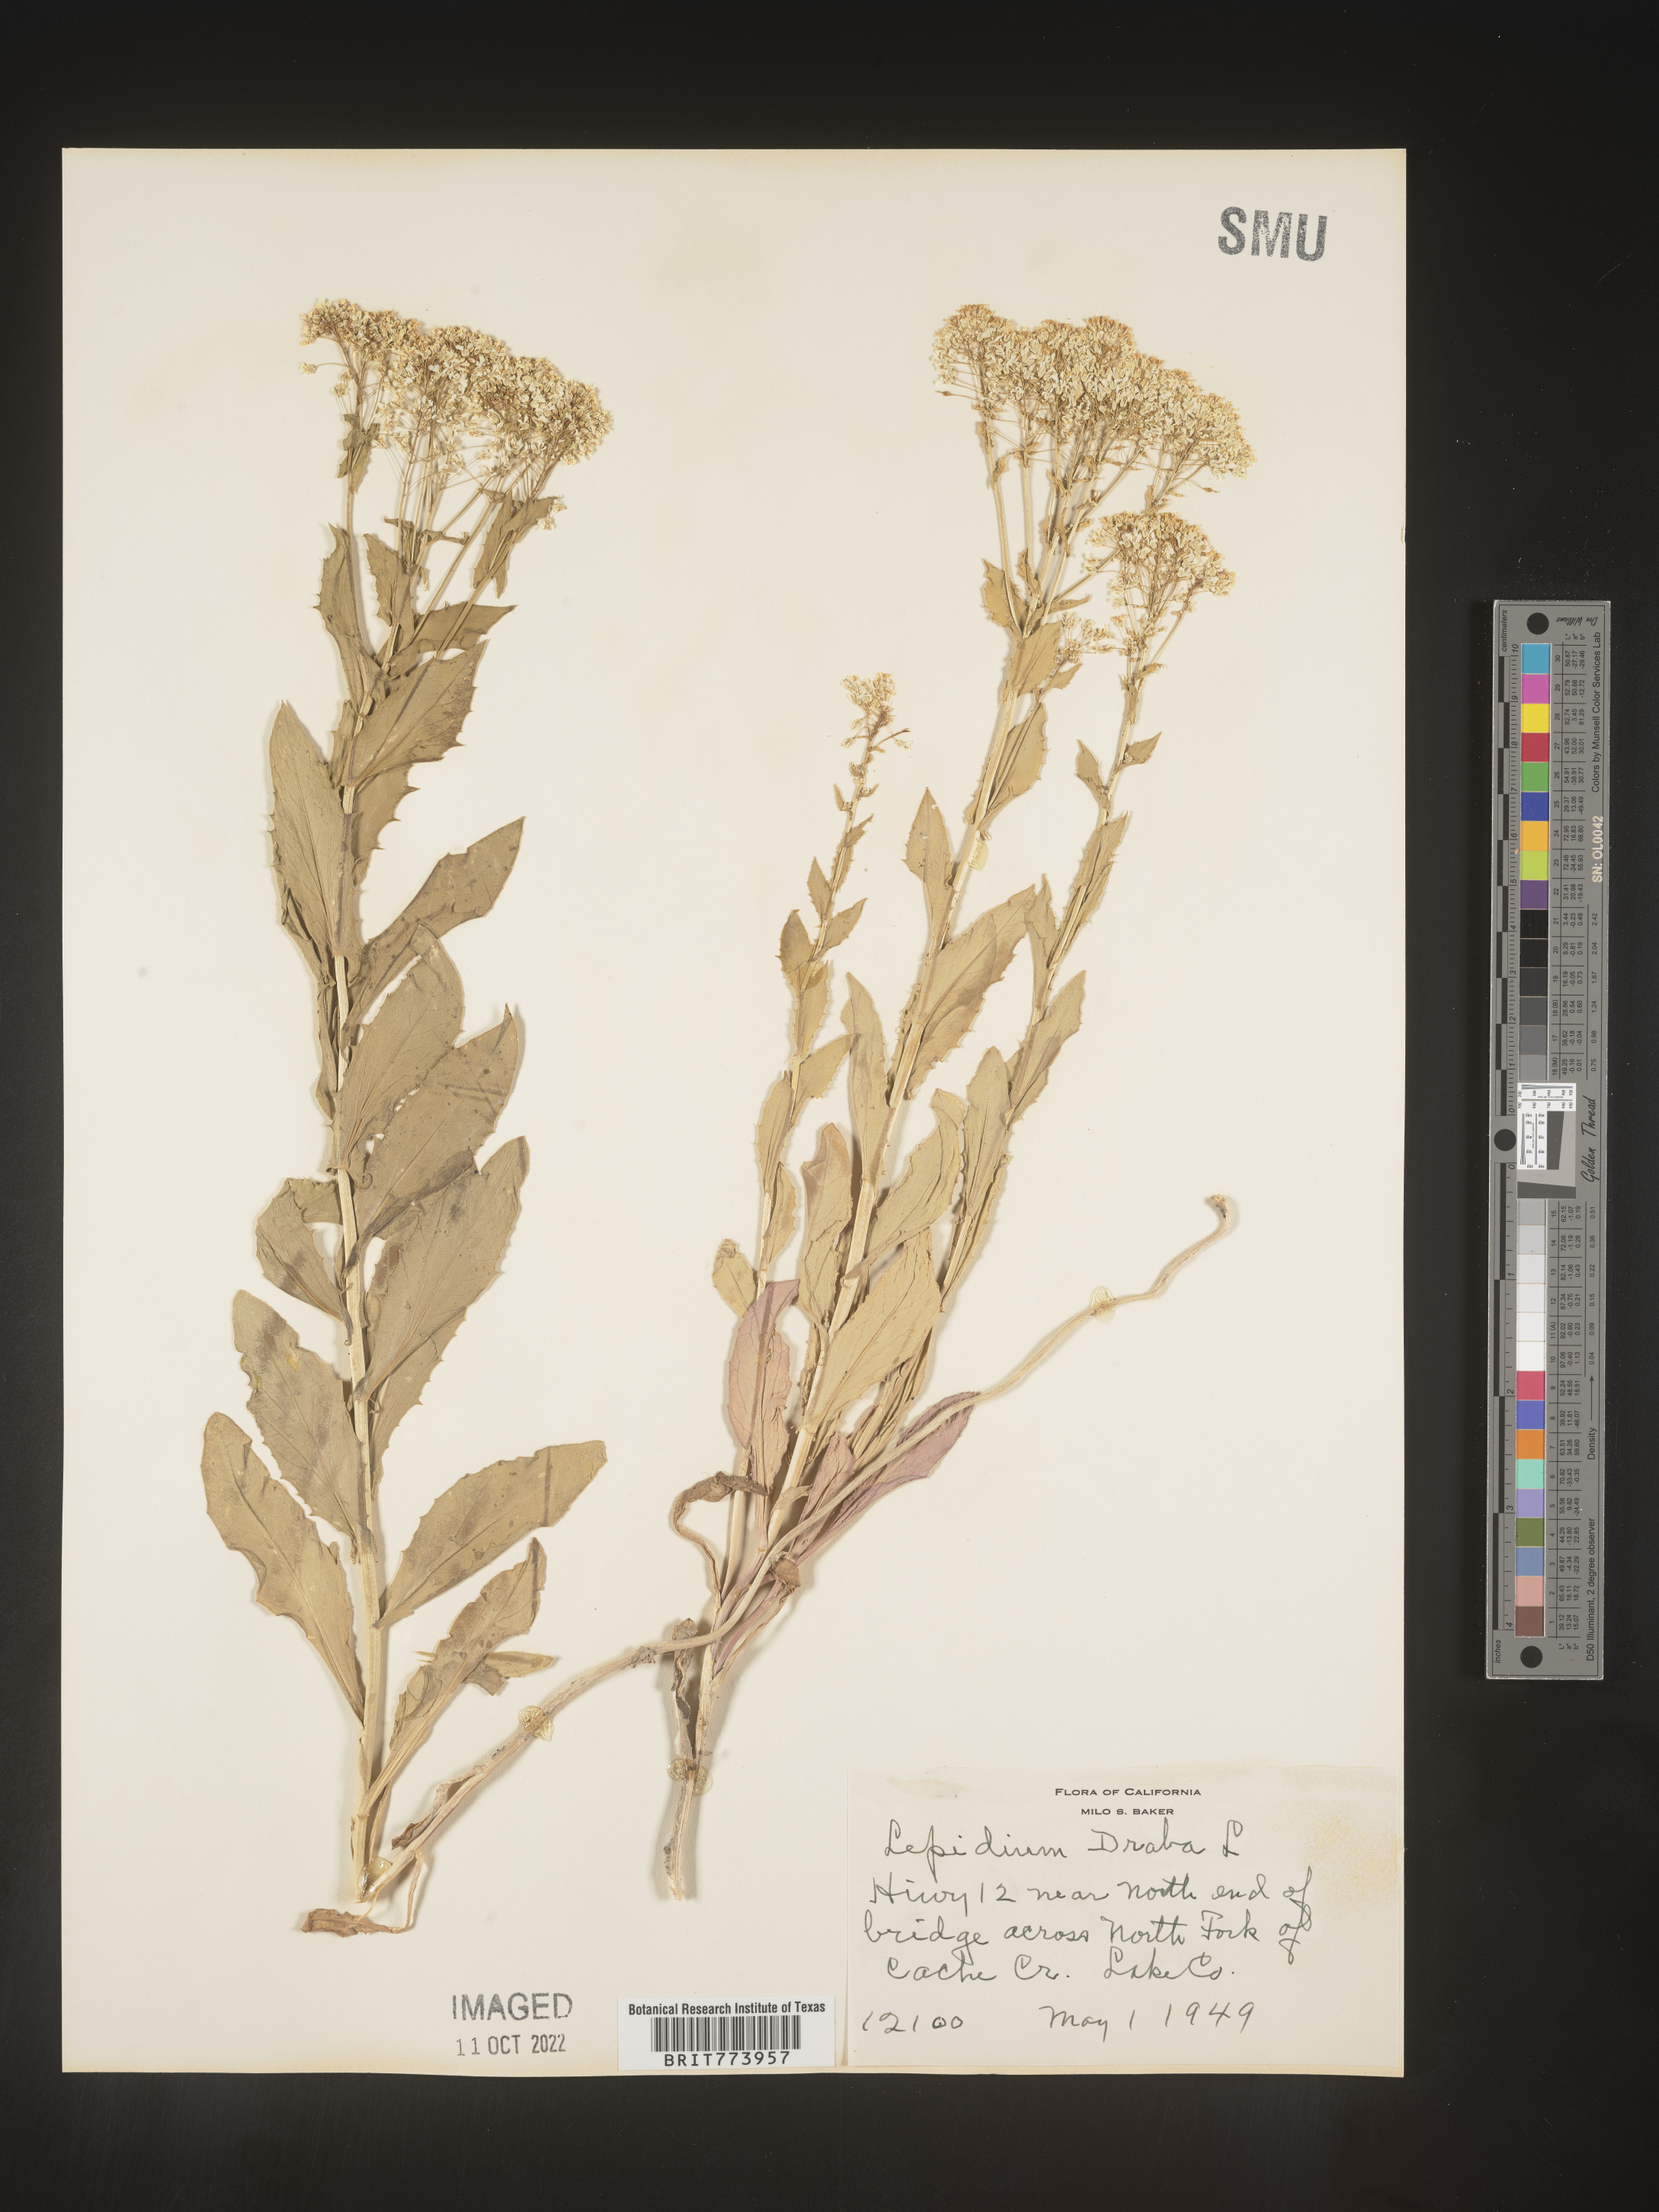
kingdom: Plantae
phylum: Tracheophyta
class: Magnoliopsida
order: Brassicales
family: Brassicaceae
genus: Lepidium
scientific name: Lepidium draba
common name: Hoary cress
